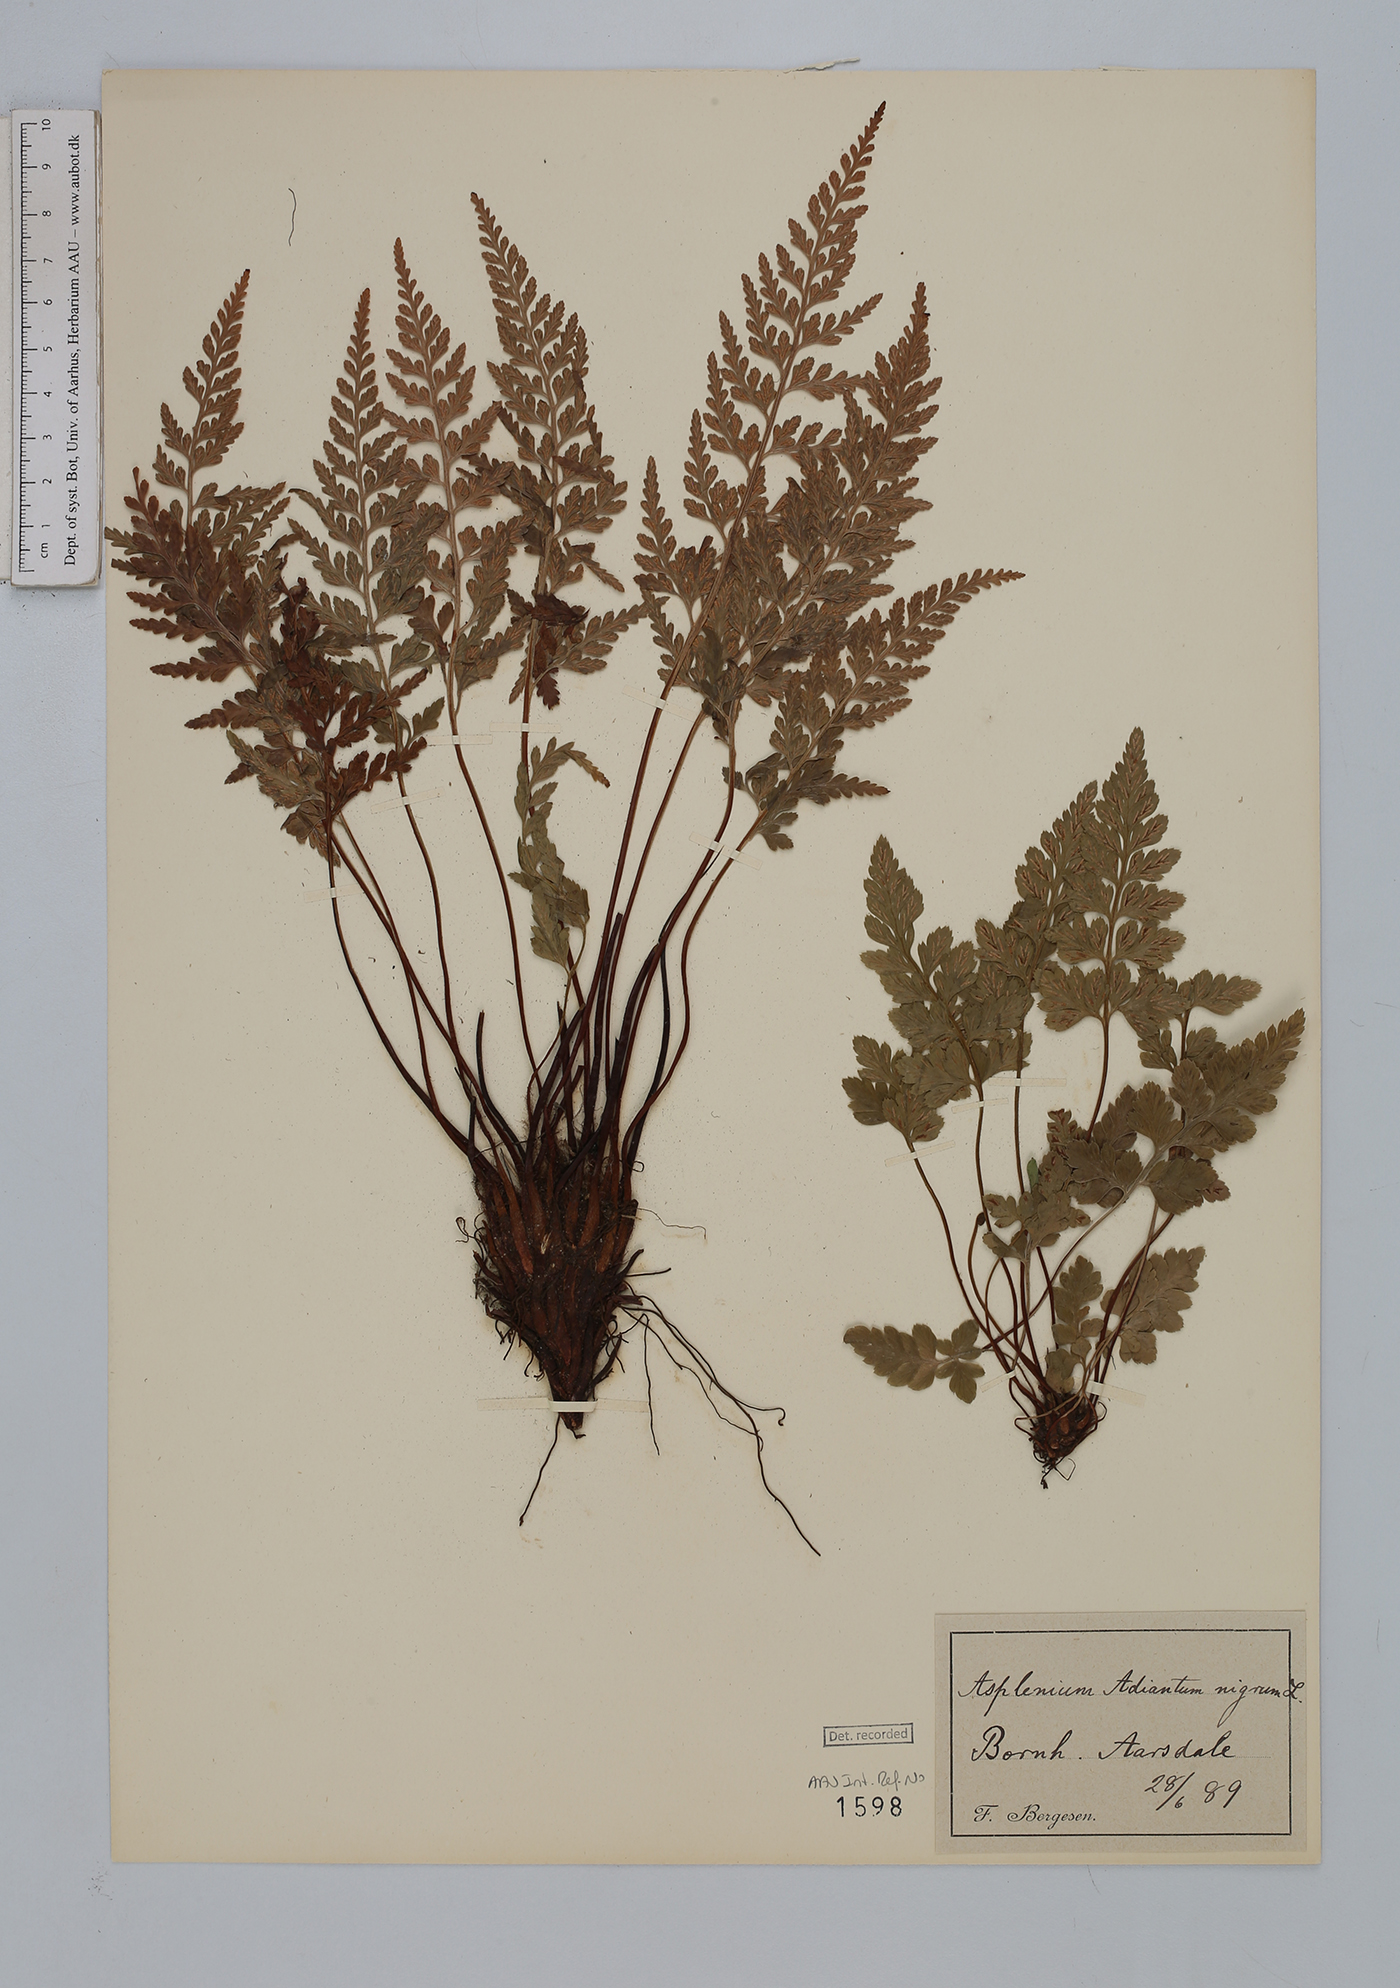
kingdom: Plantae
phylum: Tracheophyta
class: Polypodiopsida
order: Polypodiales
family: Aspleniaceae
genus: Asplenium
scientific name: Asplenium adiantum-nigrum
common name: Black spleenwort
